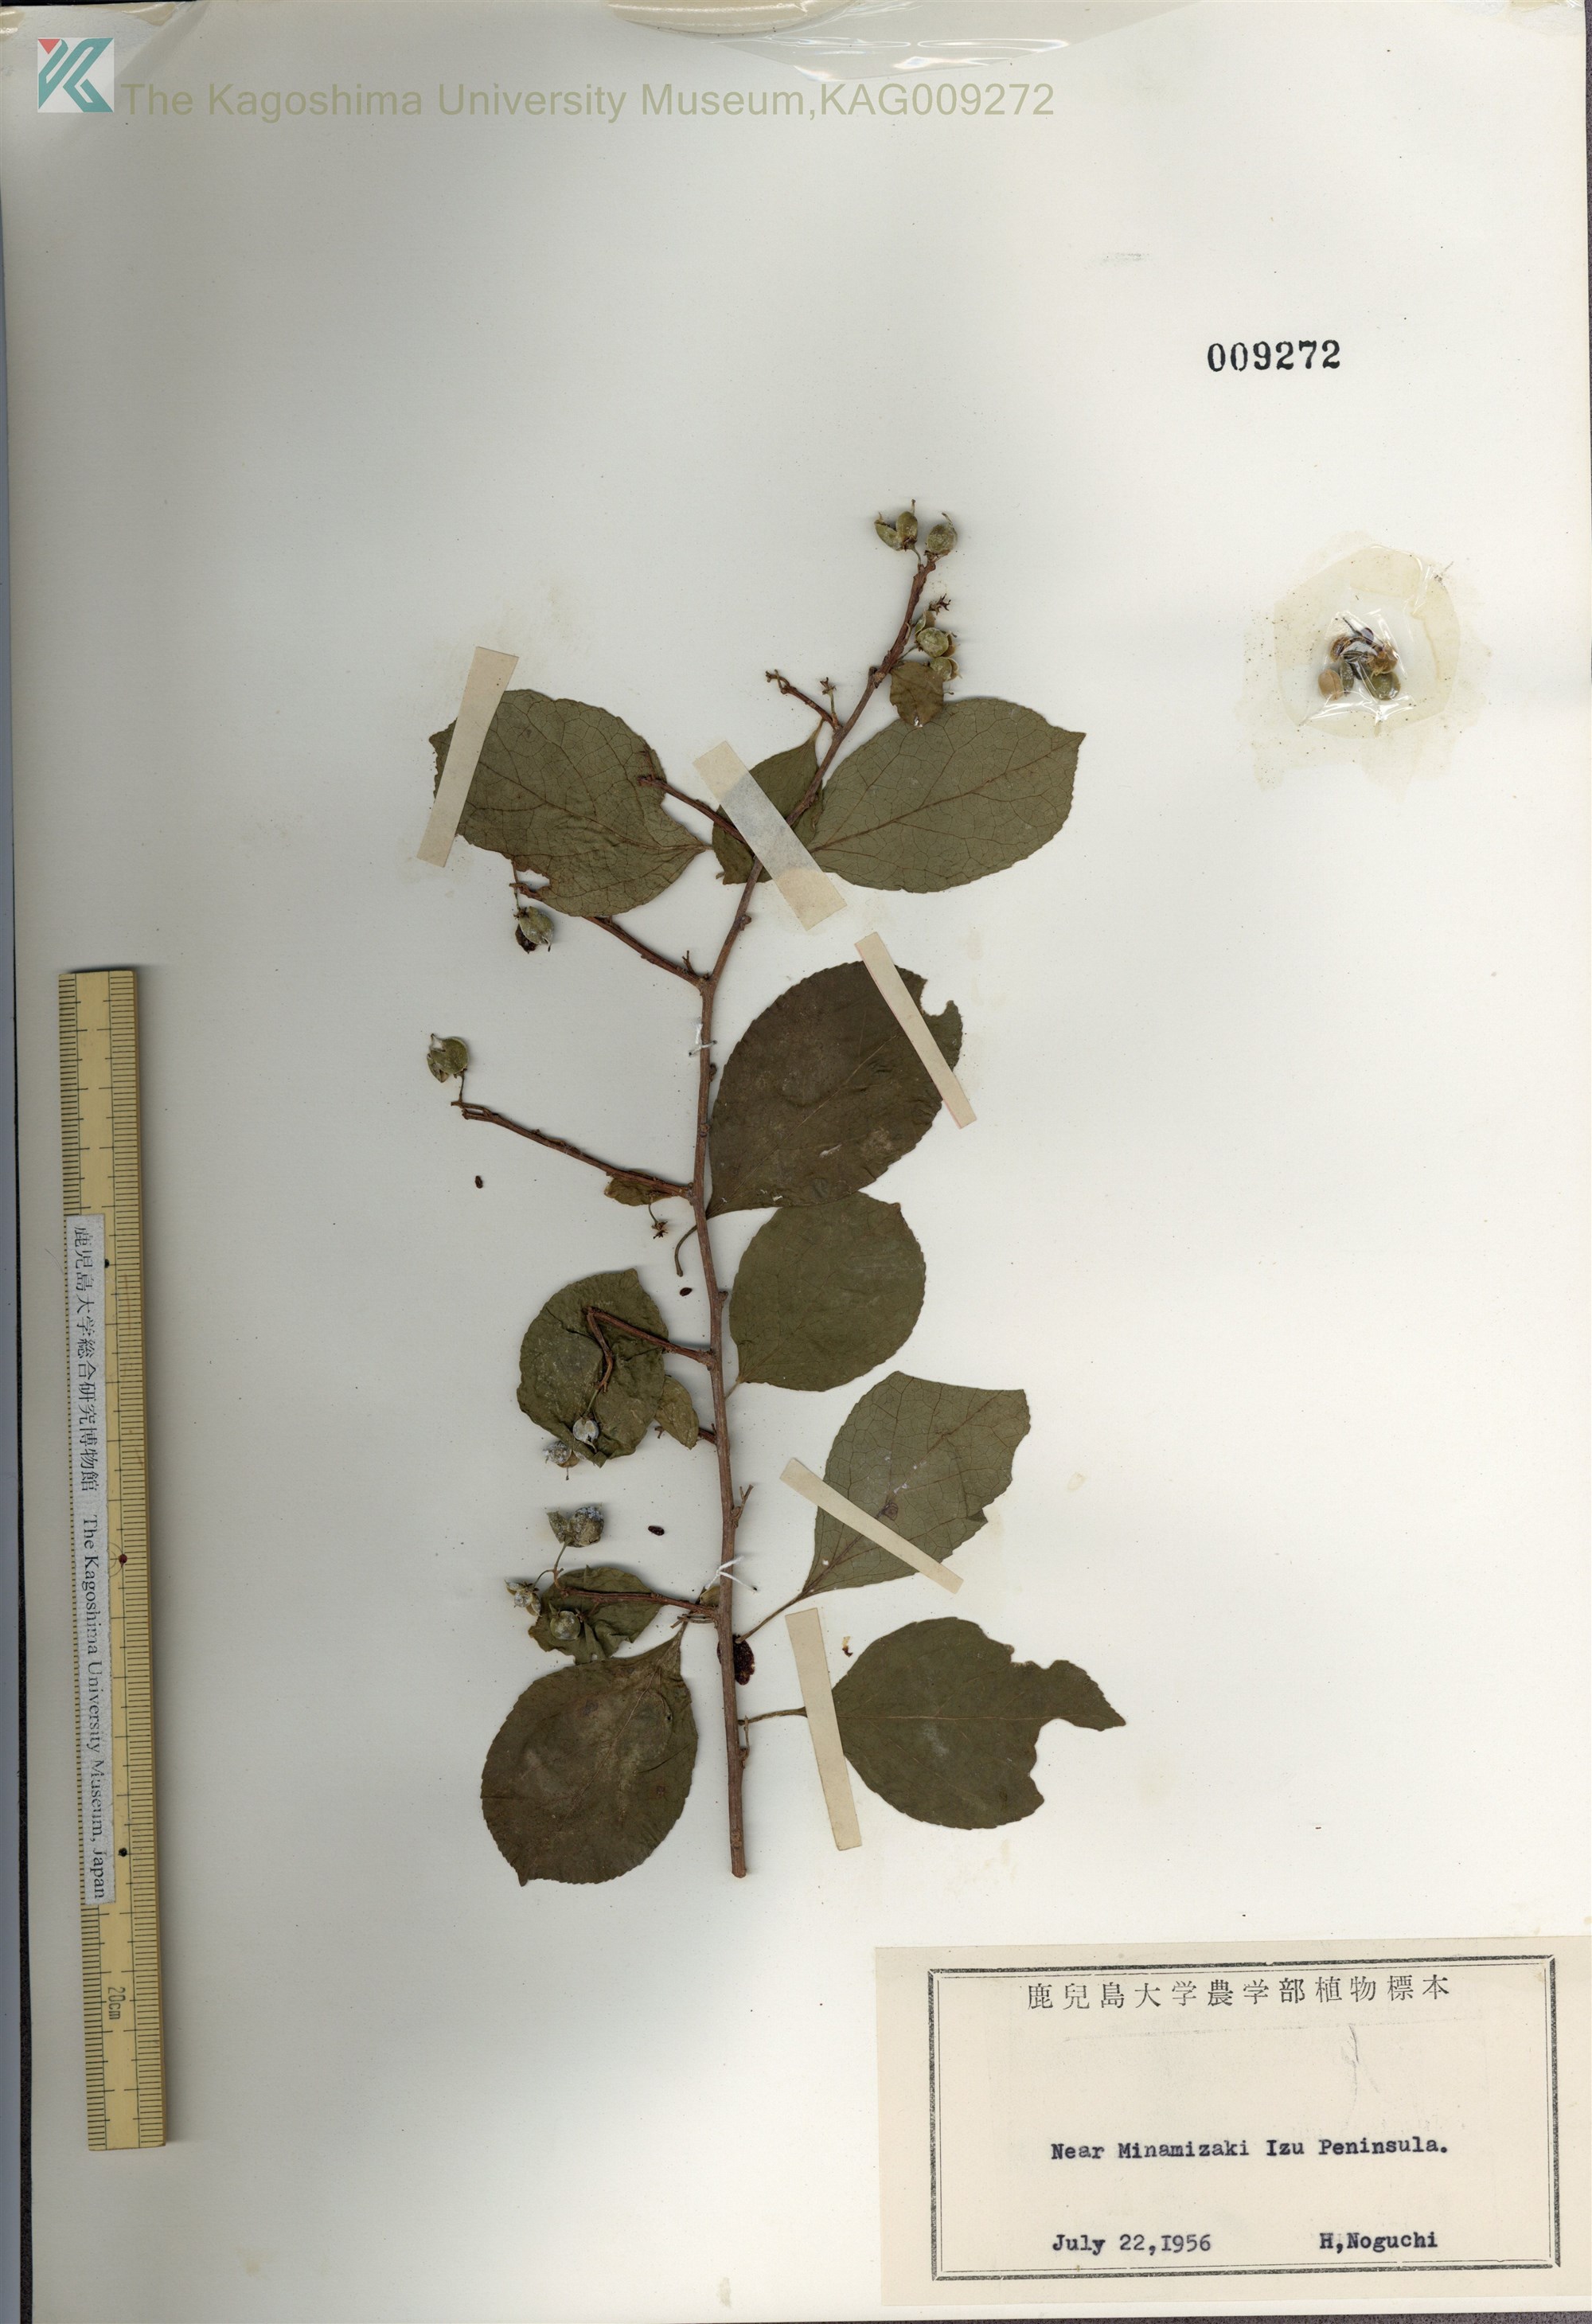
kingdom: Plantae
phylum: Tracheophyta
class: Magnoliopsida
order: Celastrales
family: Celastraceae
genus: Celastrus
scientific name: Celastrus orbiculatus
